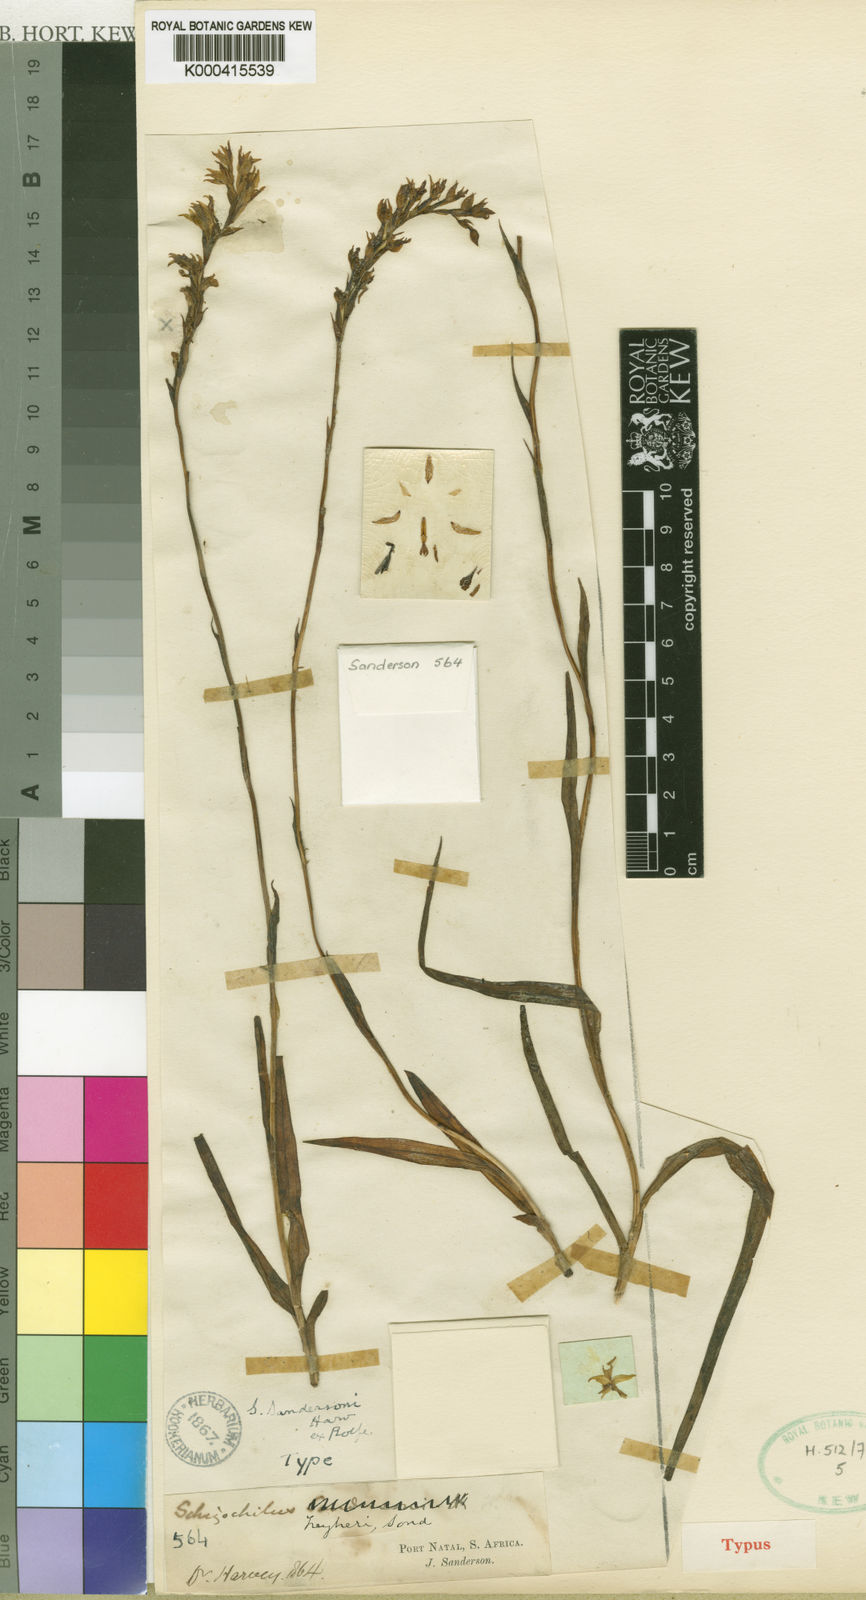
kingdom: Plantae
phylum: Tracheophyta
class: Liliopsida
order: Asparagales
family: Orchidaceae
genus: Schizochilus
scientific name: Schizochilus zeyheri
